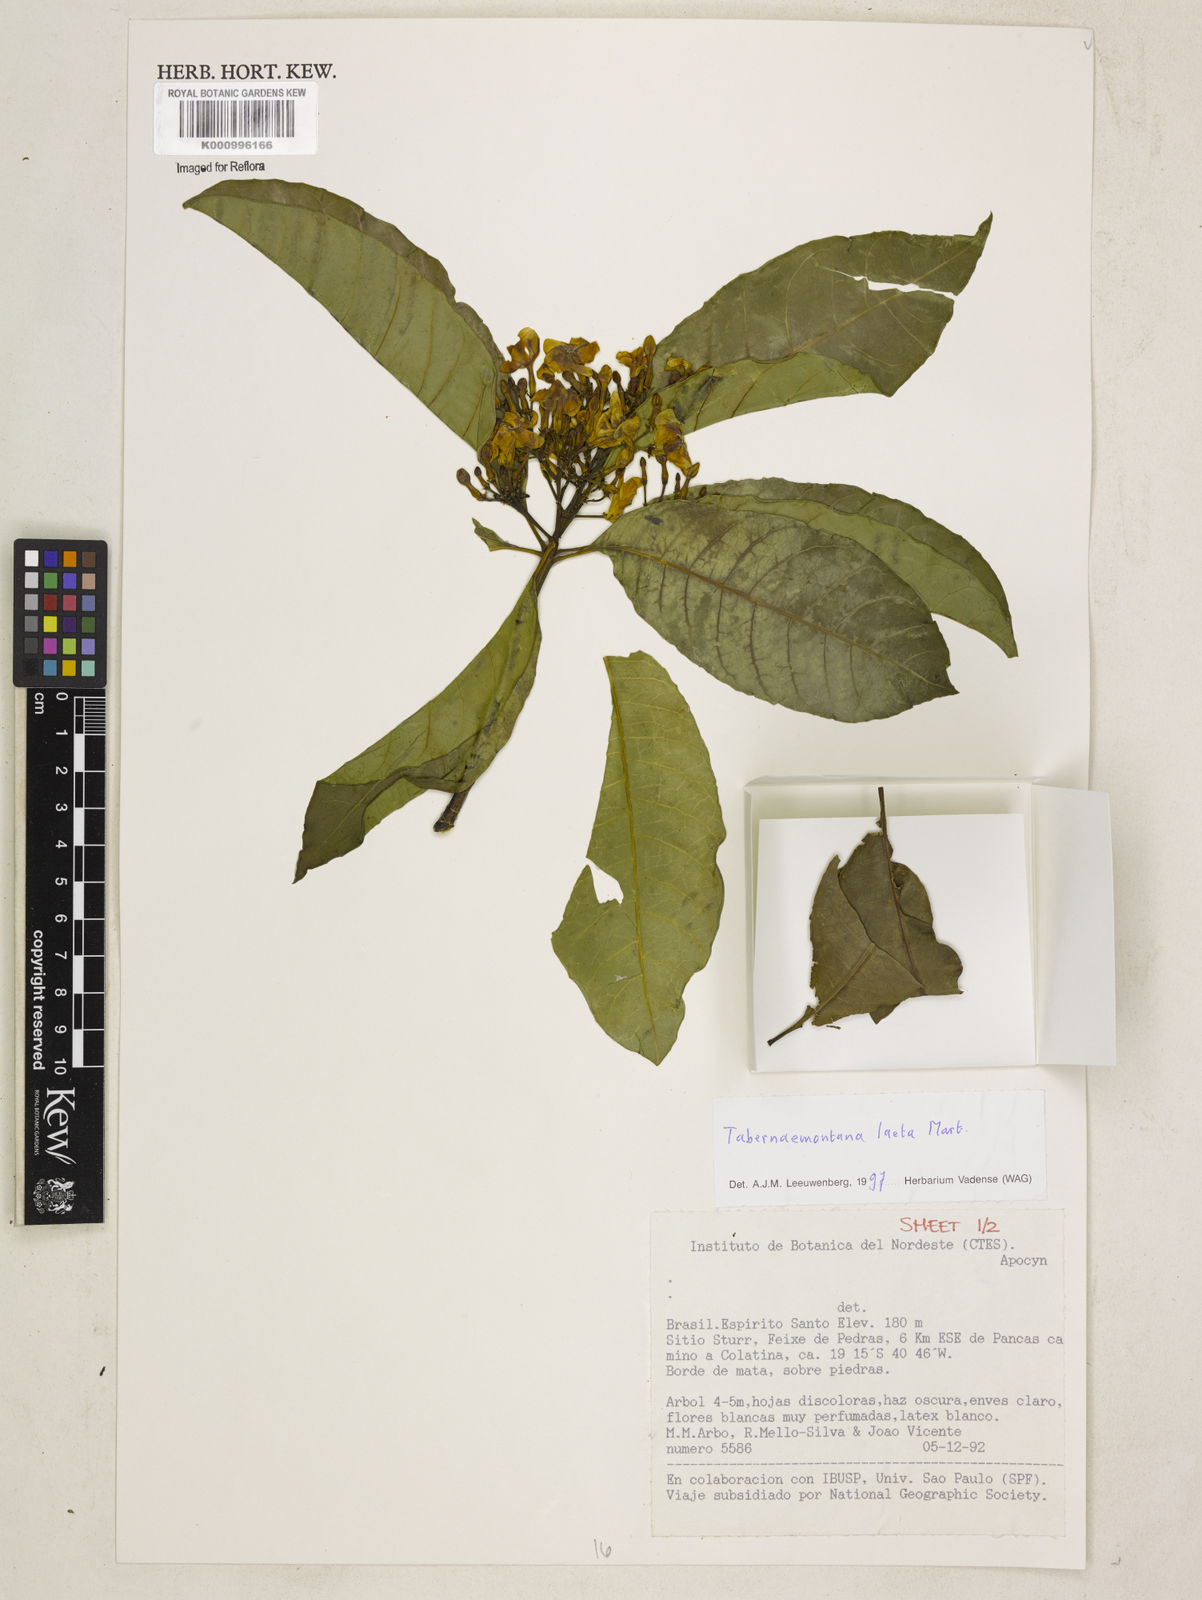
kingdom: Plantae
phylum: Tracheophyta
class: Magnoliopsida
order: Gentianales
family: Apocynaceae
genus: Tabernaemontana
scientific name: Tabernaemontana laeta
